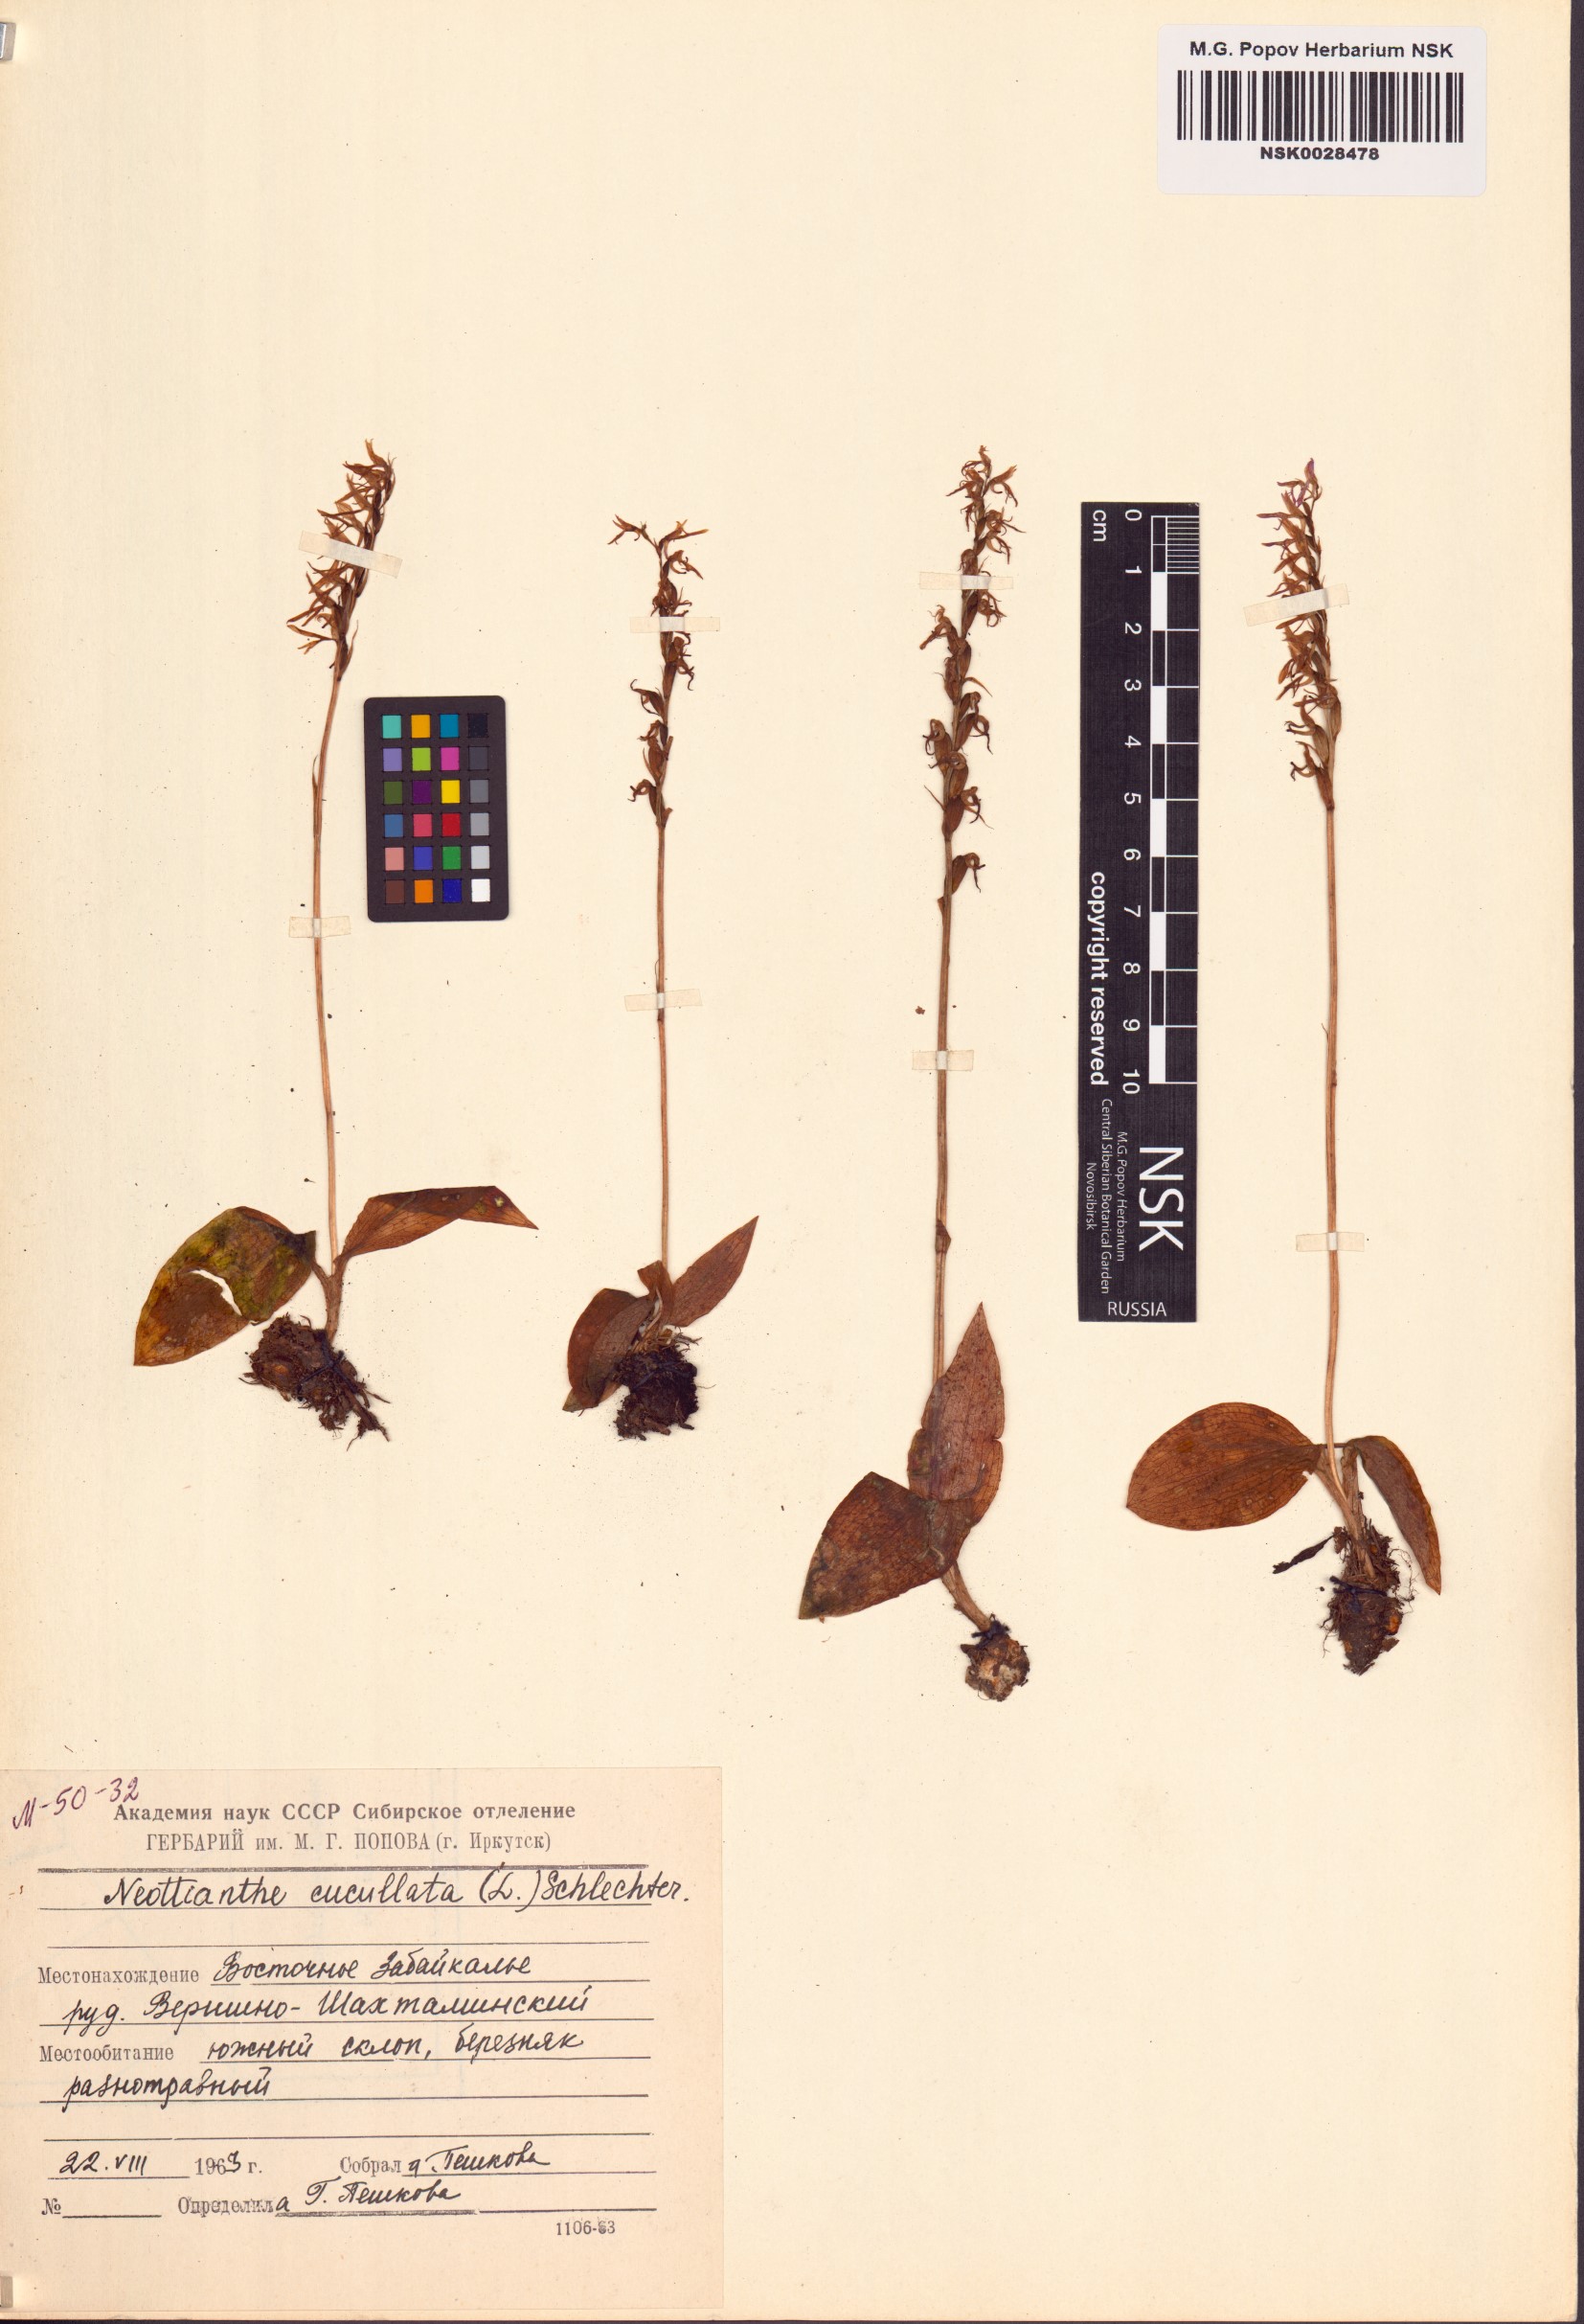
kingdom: Plantae
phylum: Tracheophyta
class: Liliopsida
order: Asparagales
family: Orchidaceae
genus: Hemipilia
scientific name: Hemipilia cucullata
